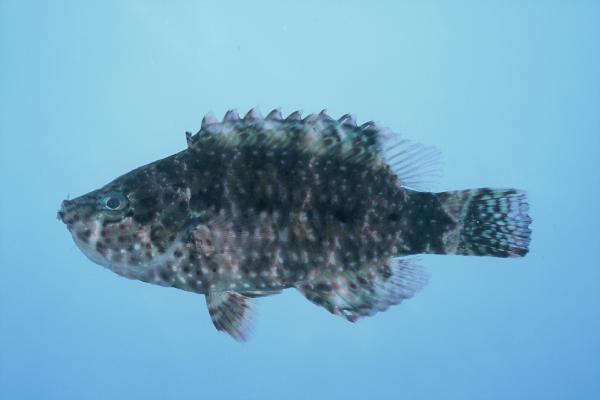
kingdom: Animalia
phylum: Chordata
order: Perciformes
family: Labridae
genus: Cheilinus
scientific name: Cheilinus chlorourus
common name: Floral wrasse
